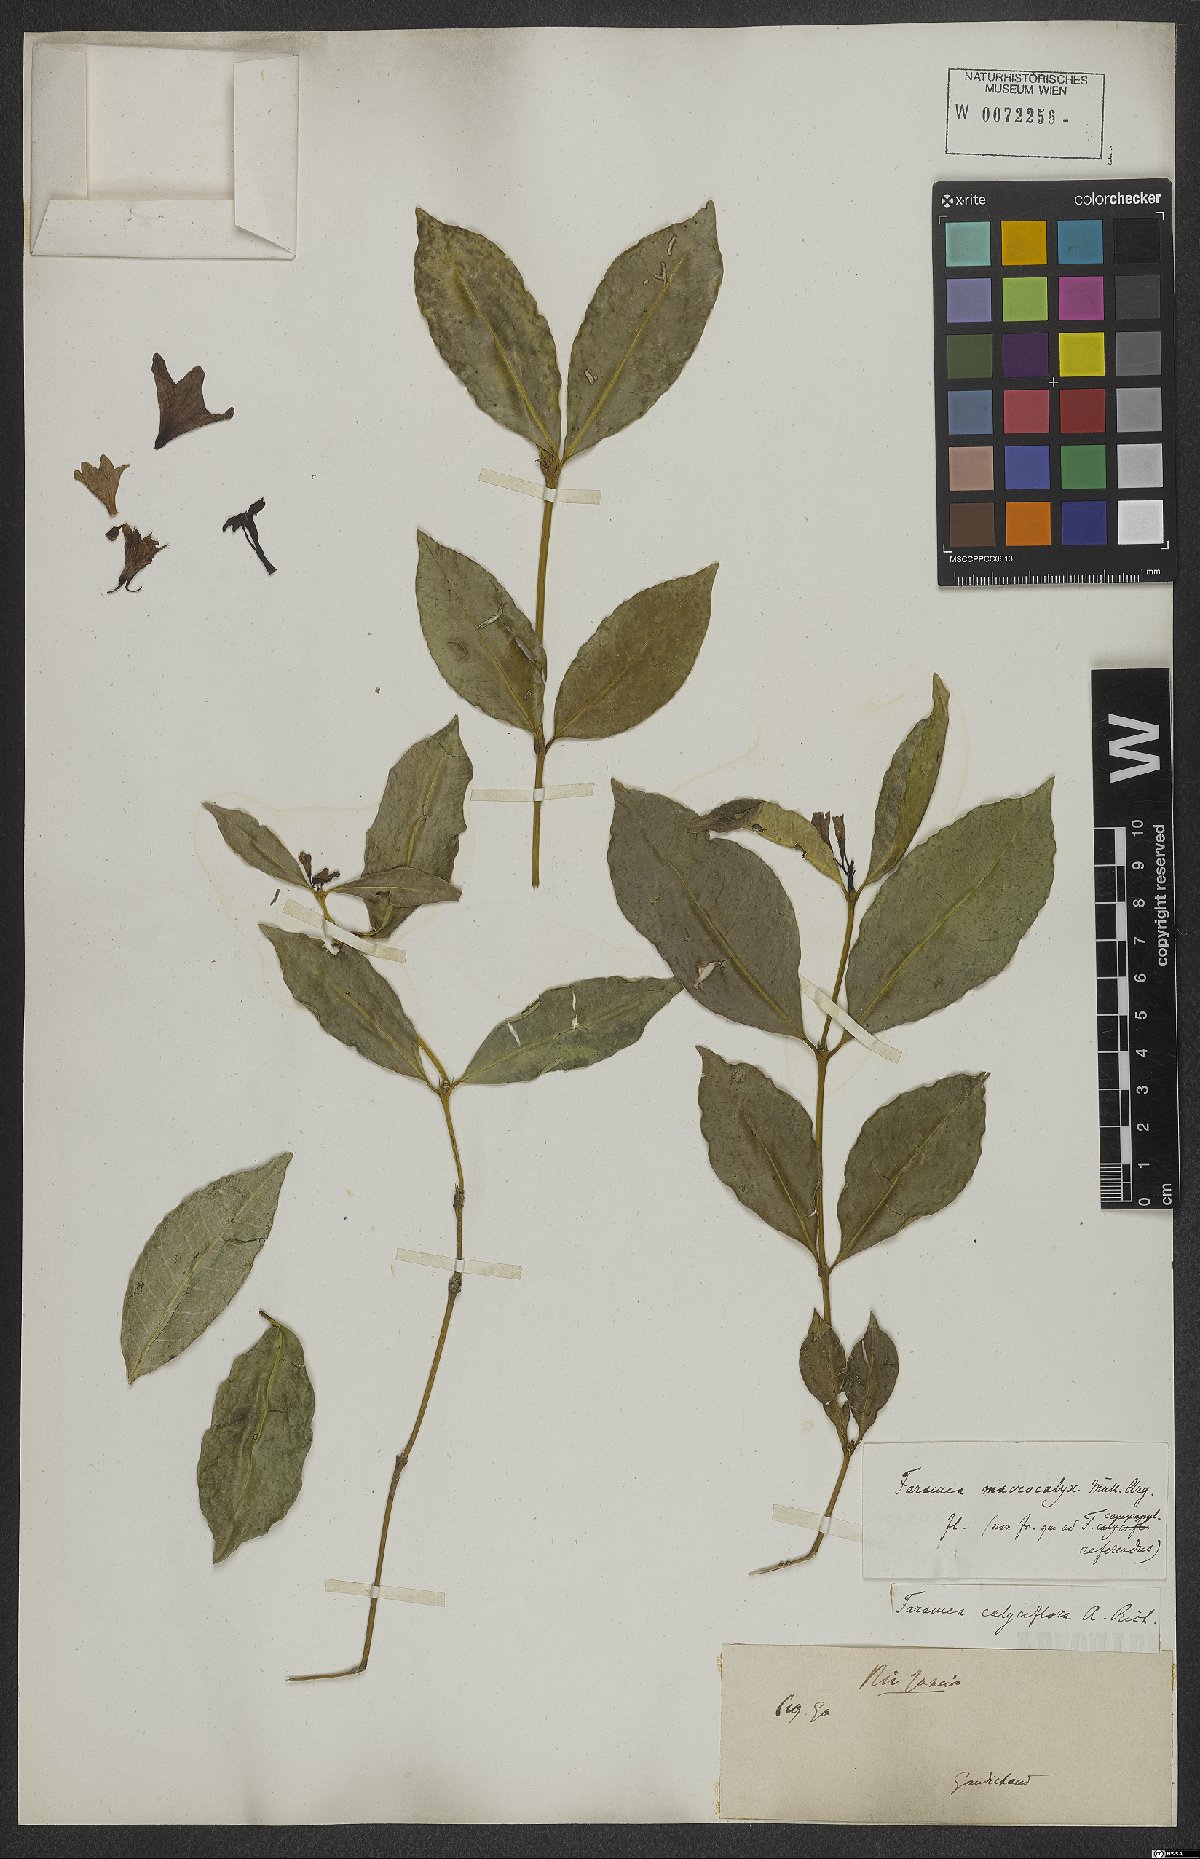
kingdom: Plantae
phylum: Tracheophyta
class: Magnoliopsida
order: Gentianales
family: Rubiaceae
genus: Faramea
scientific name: Faramea calyciflora
